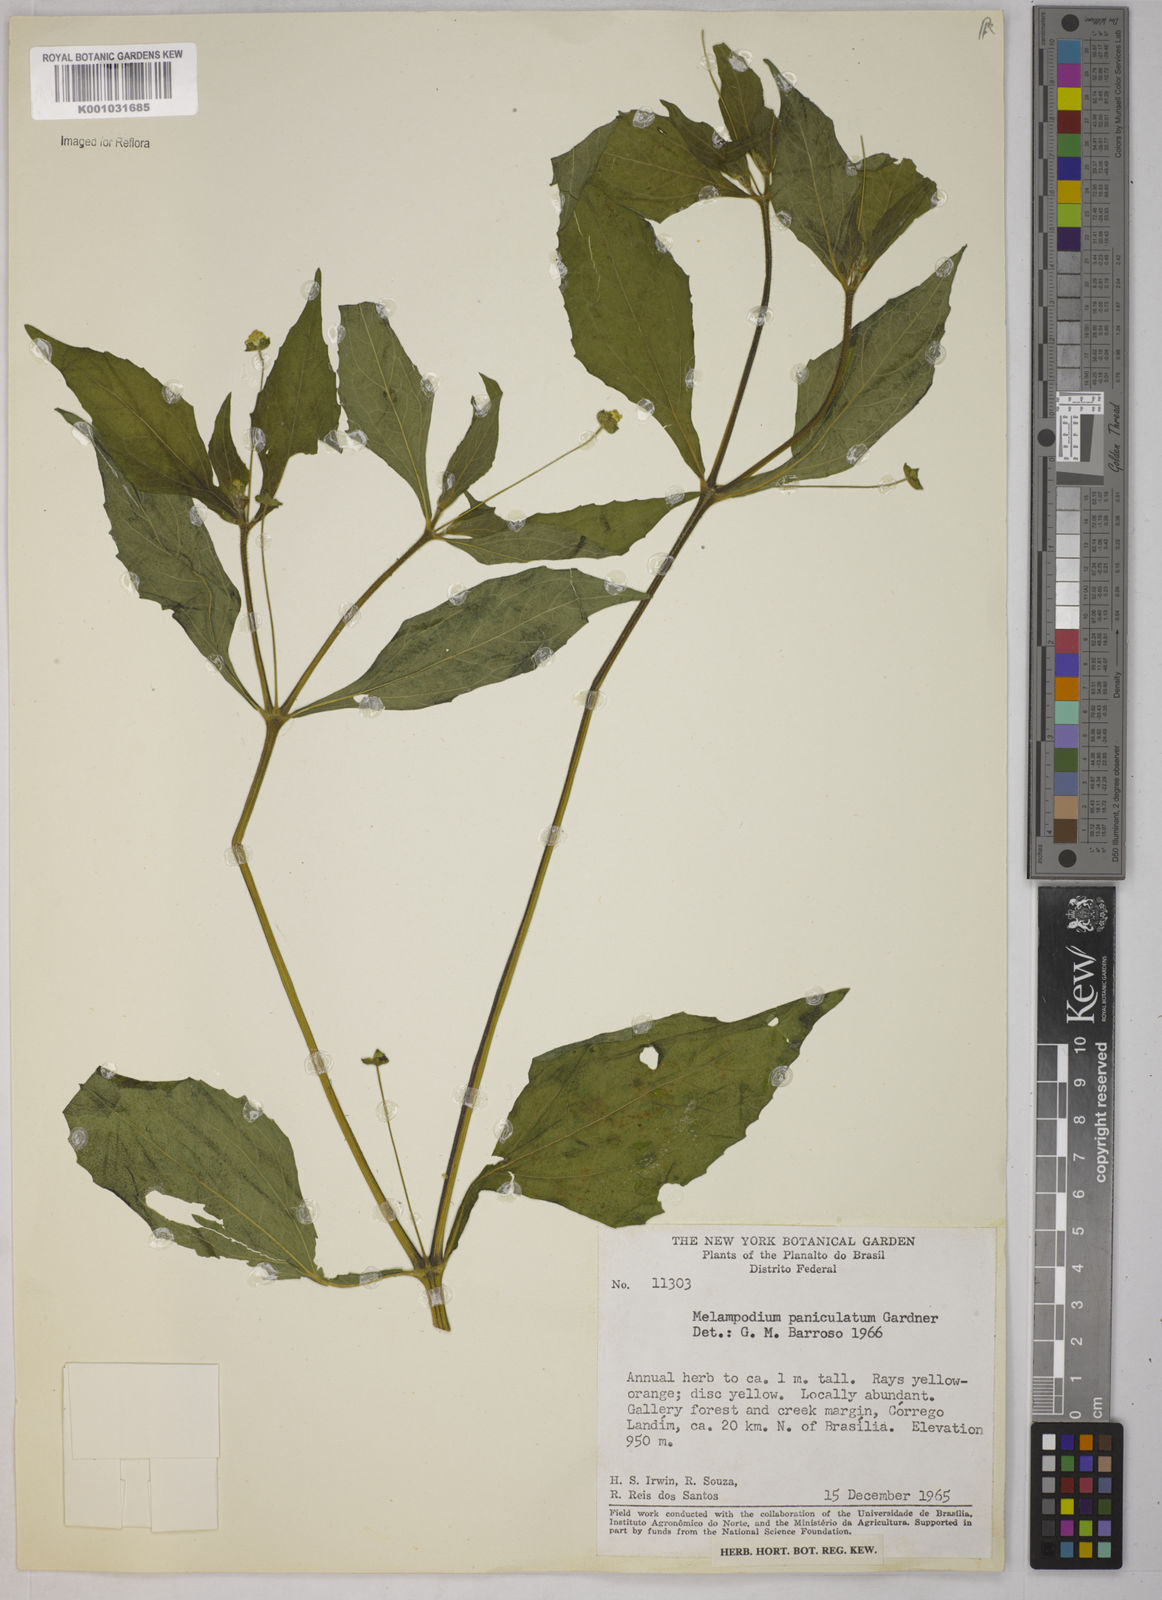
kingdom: Plantae
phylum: Tracheophyta
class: Magnoliopsida
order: Asterales
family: Asteraceae
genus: Melampodium
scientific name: Melampodium paniculatum
